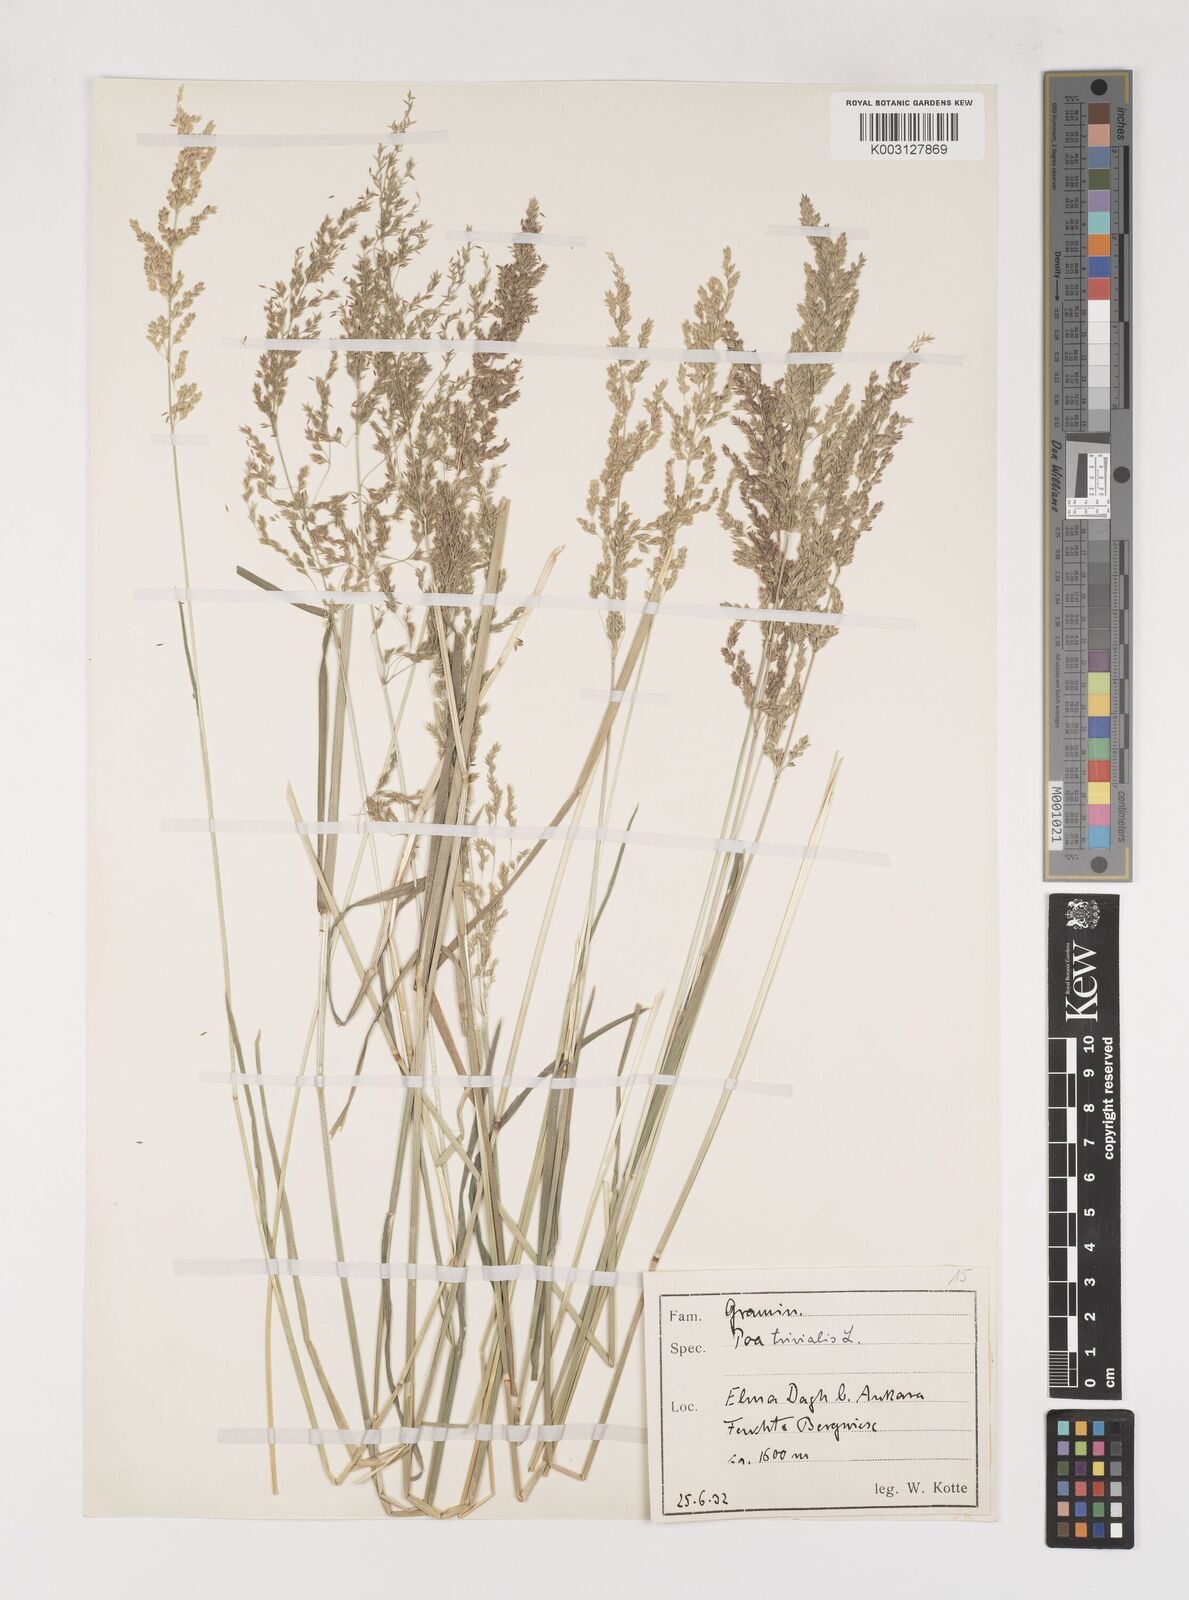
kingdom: Plantae
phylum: Tracheophyta
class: Liliopsida
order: Poales
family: Poaceae
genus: Poa
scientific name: Poa trivialis
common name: Rough bluegrass
